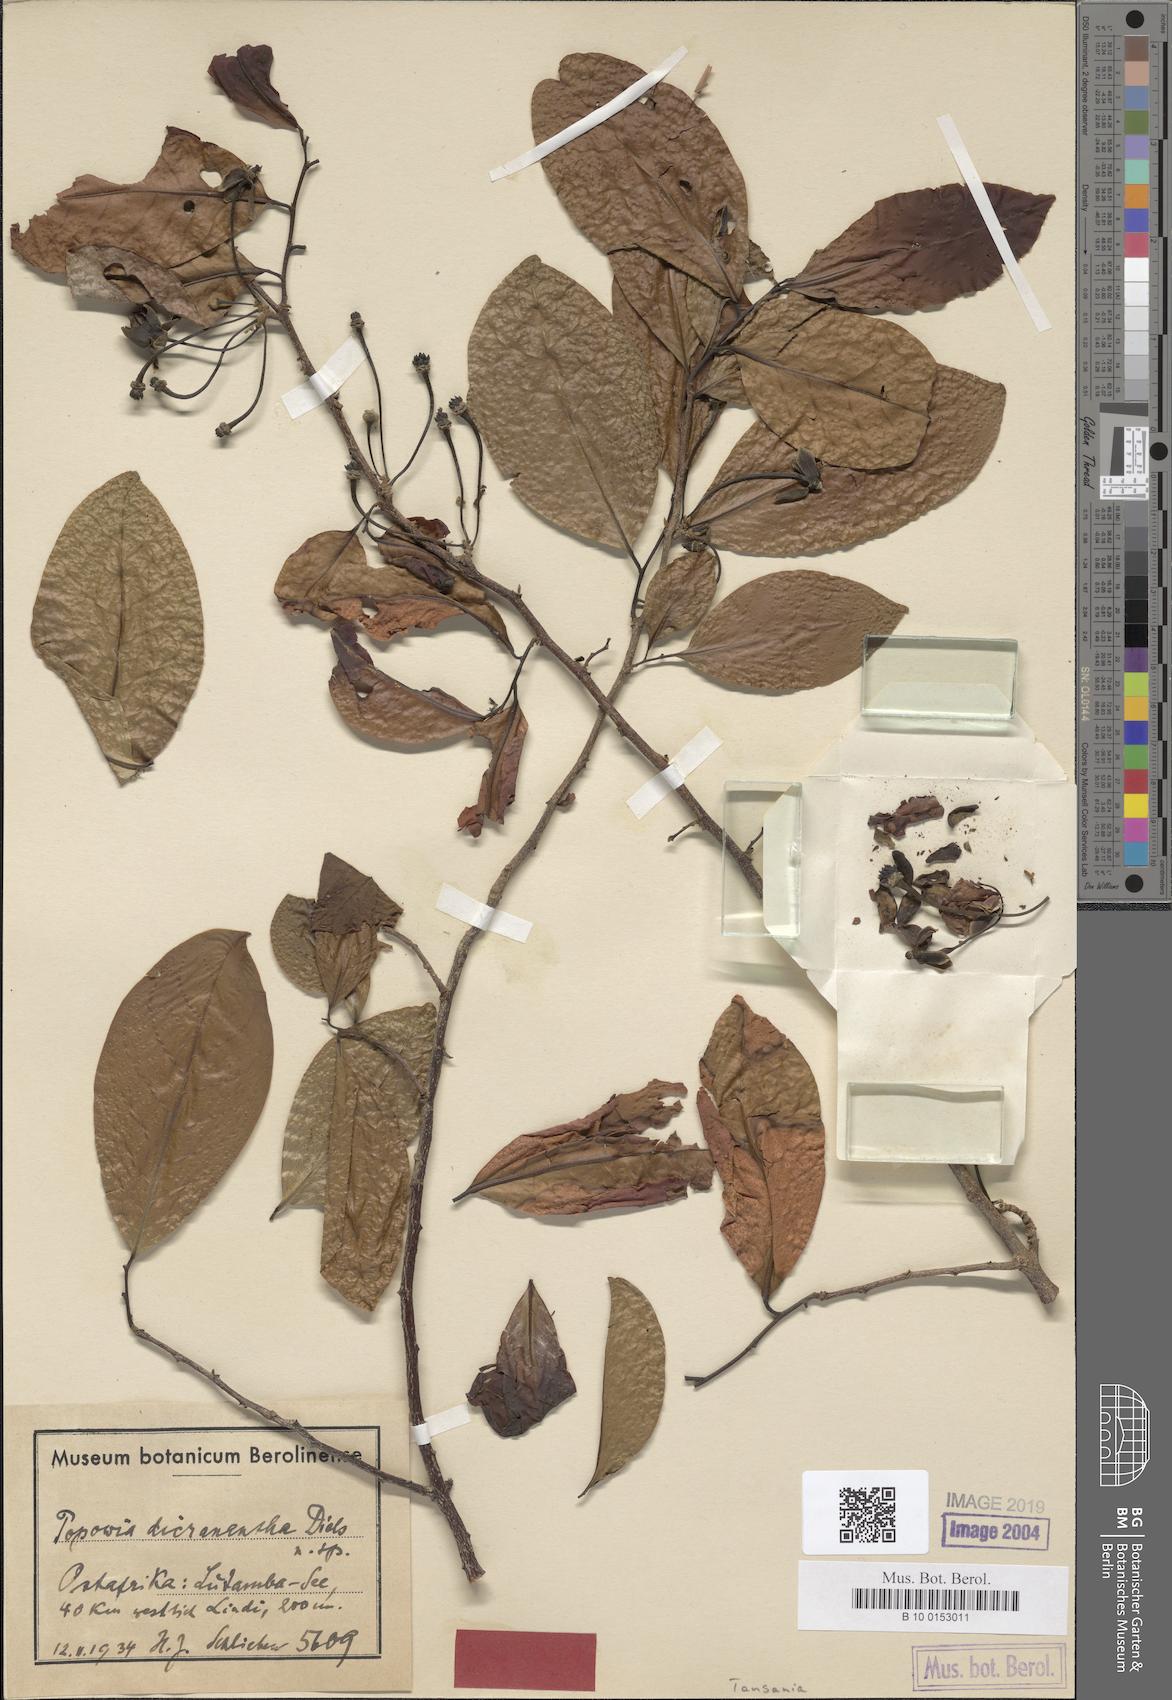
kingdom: Plantae
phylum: Tracheophyta
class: Magnoliopsida
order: Magnoliales
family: Annonaceae
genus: Artabotrys
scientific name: Artabotrys brachypetalus
